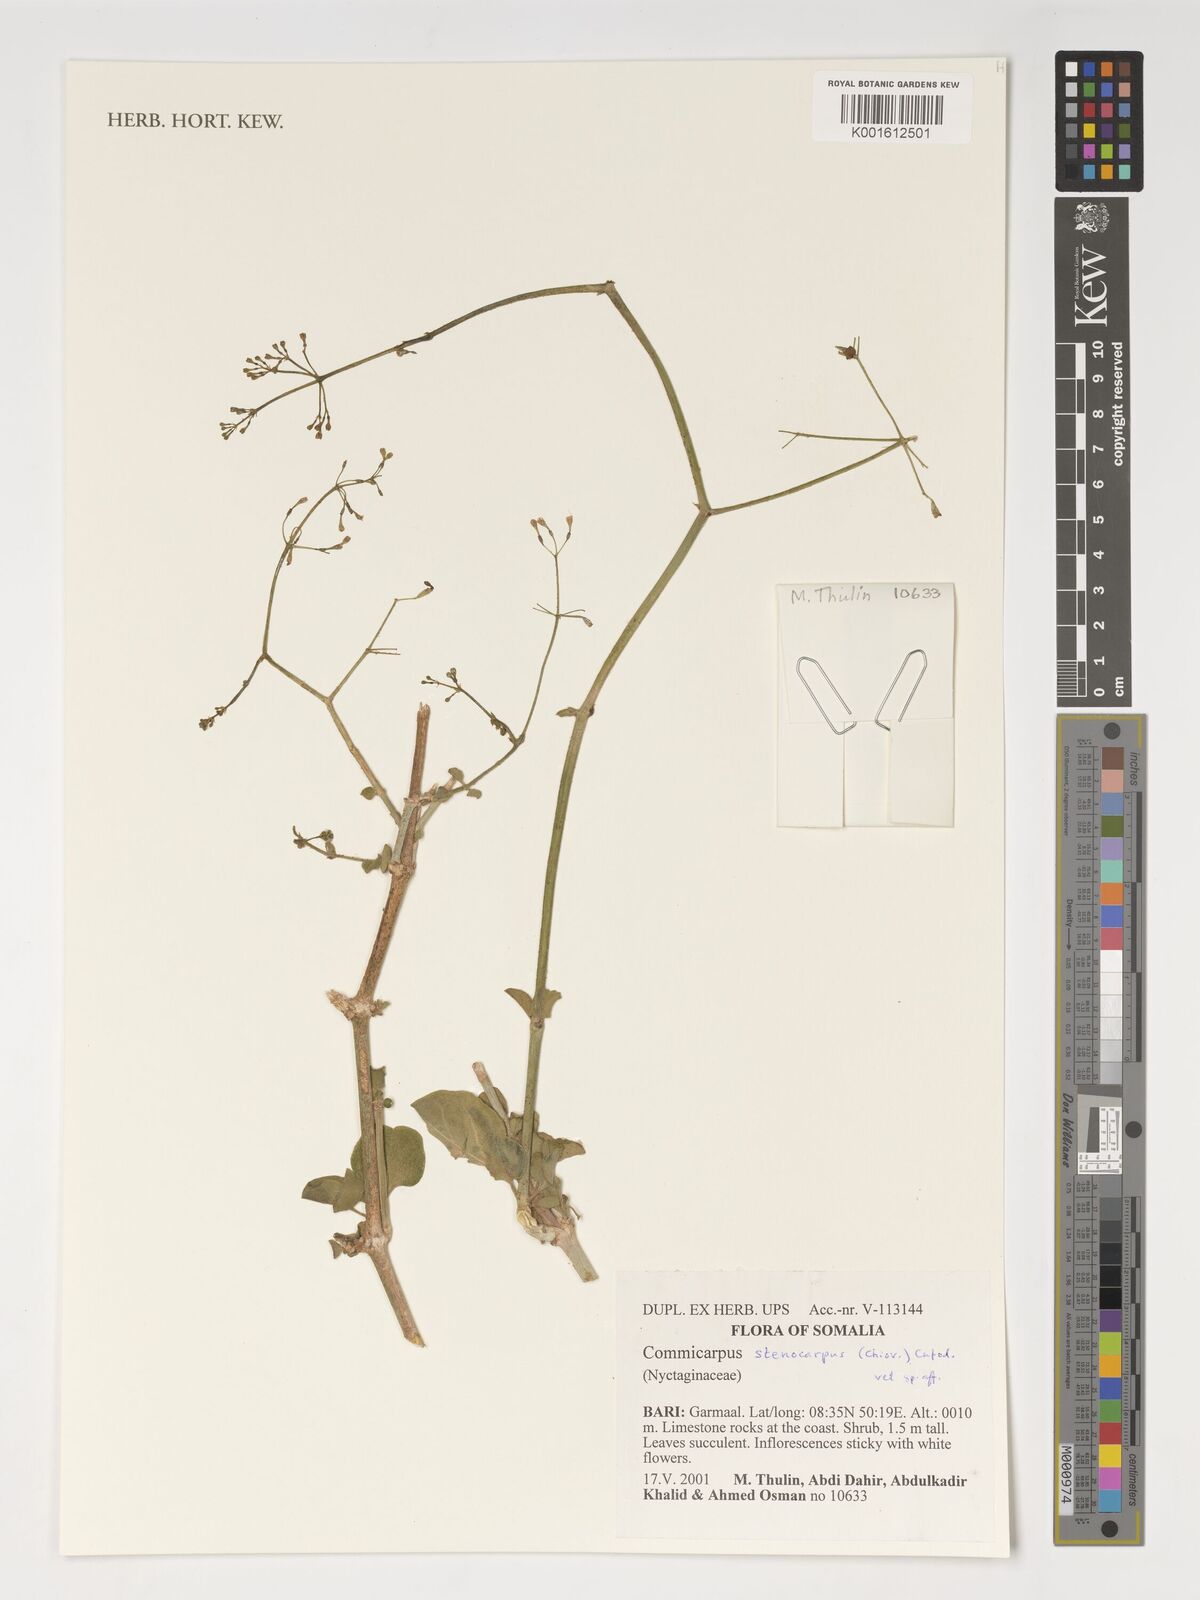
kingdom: Plantae
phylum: Tracheophyta
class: Magnoliopsida
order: Caryophyllales
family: Nyctaginaceae
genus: Commicarpus
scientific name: Commicarpus stenocarpus
